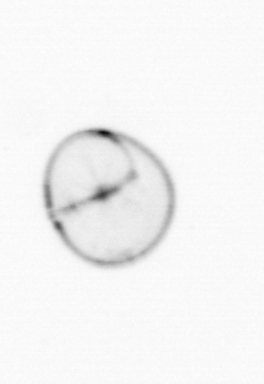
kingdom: Chromista
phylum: Myzozoa
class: Dinophyceae
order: Noctilucales
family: Noctilucaceae
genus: Noctiluca
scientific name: Noctiluca scintillans
